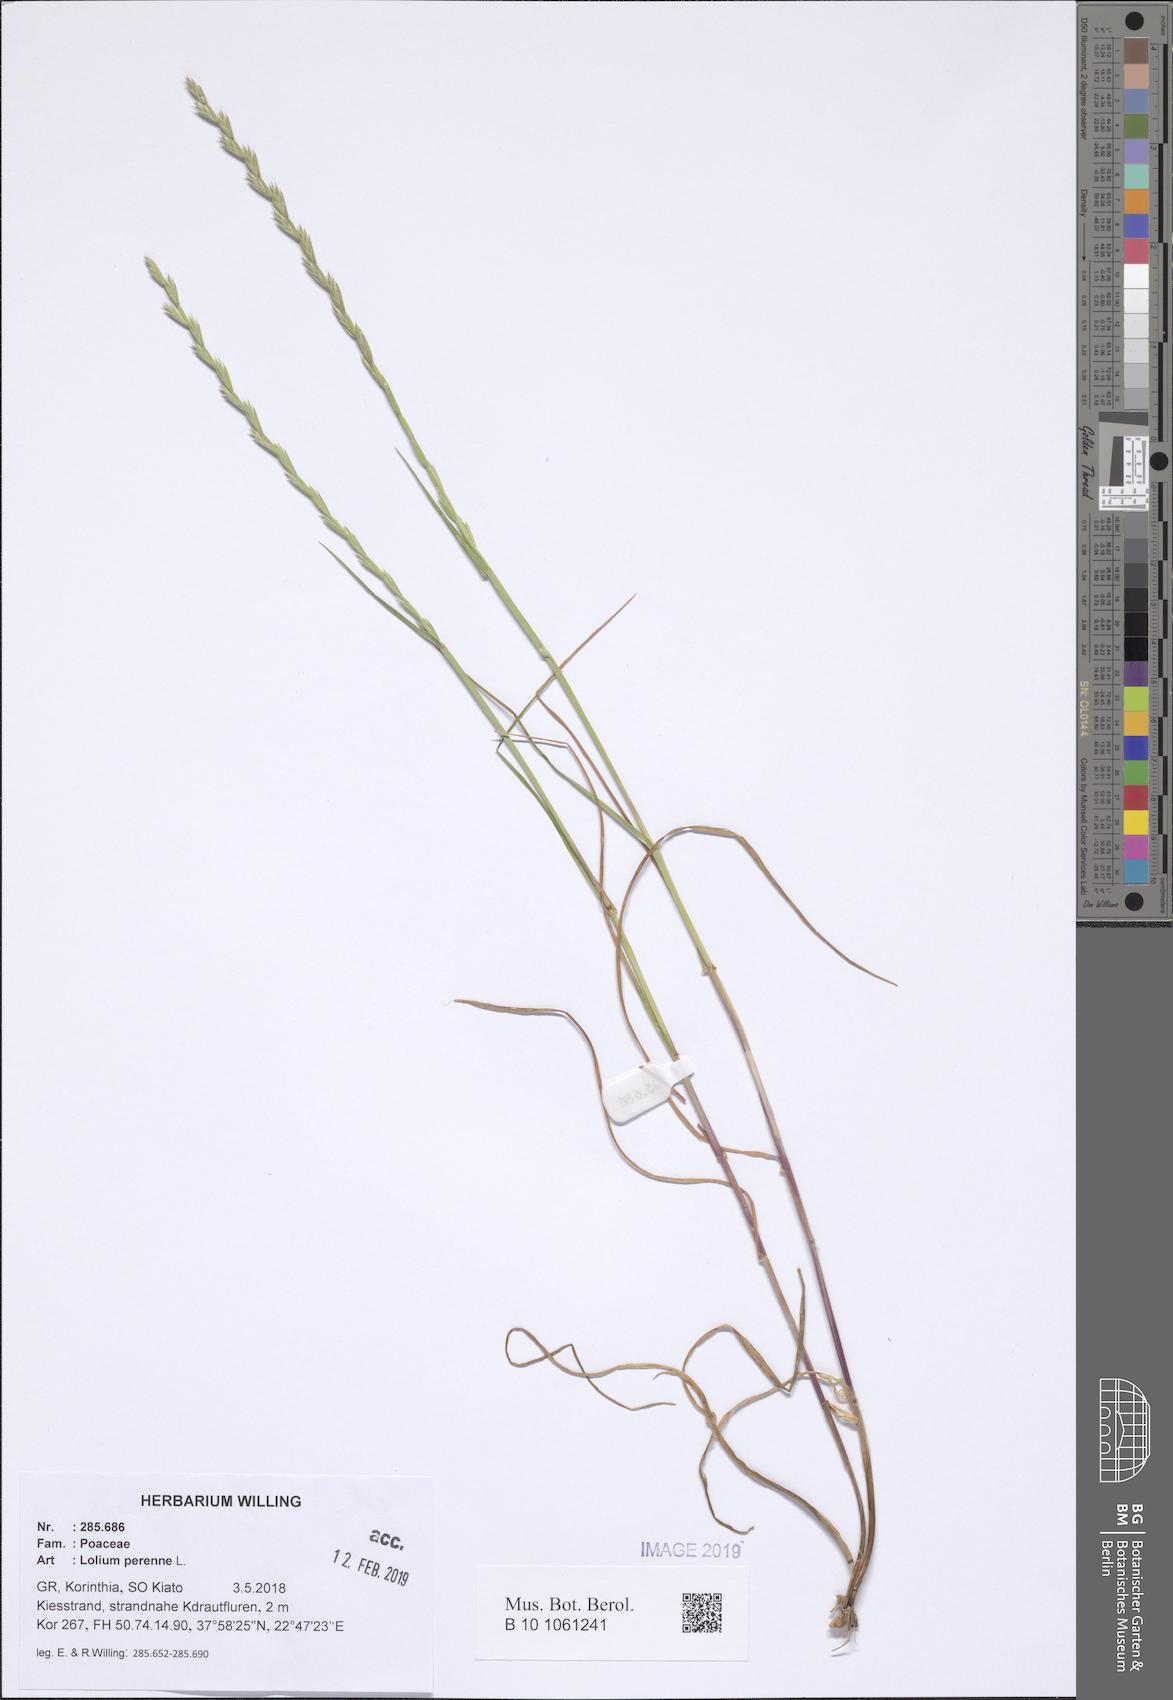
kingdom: Plantae
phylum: Tracheophyta
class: Liliopsida
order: Poales
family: Poaceae
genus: Lolium
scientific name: Lolium perenne
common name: Perennial ryegrass
